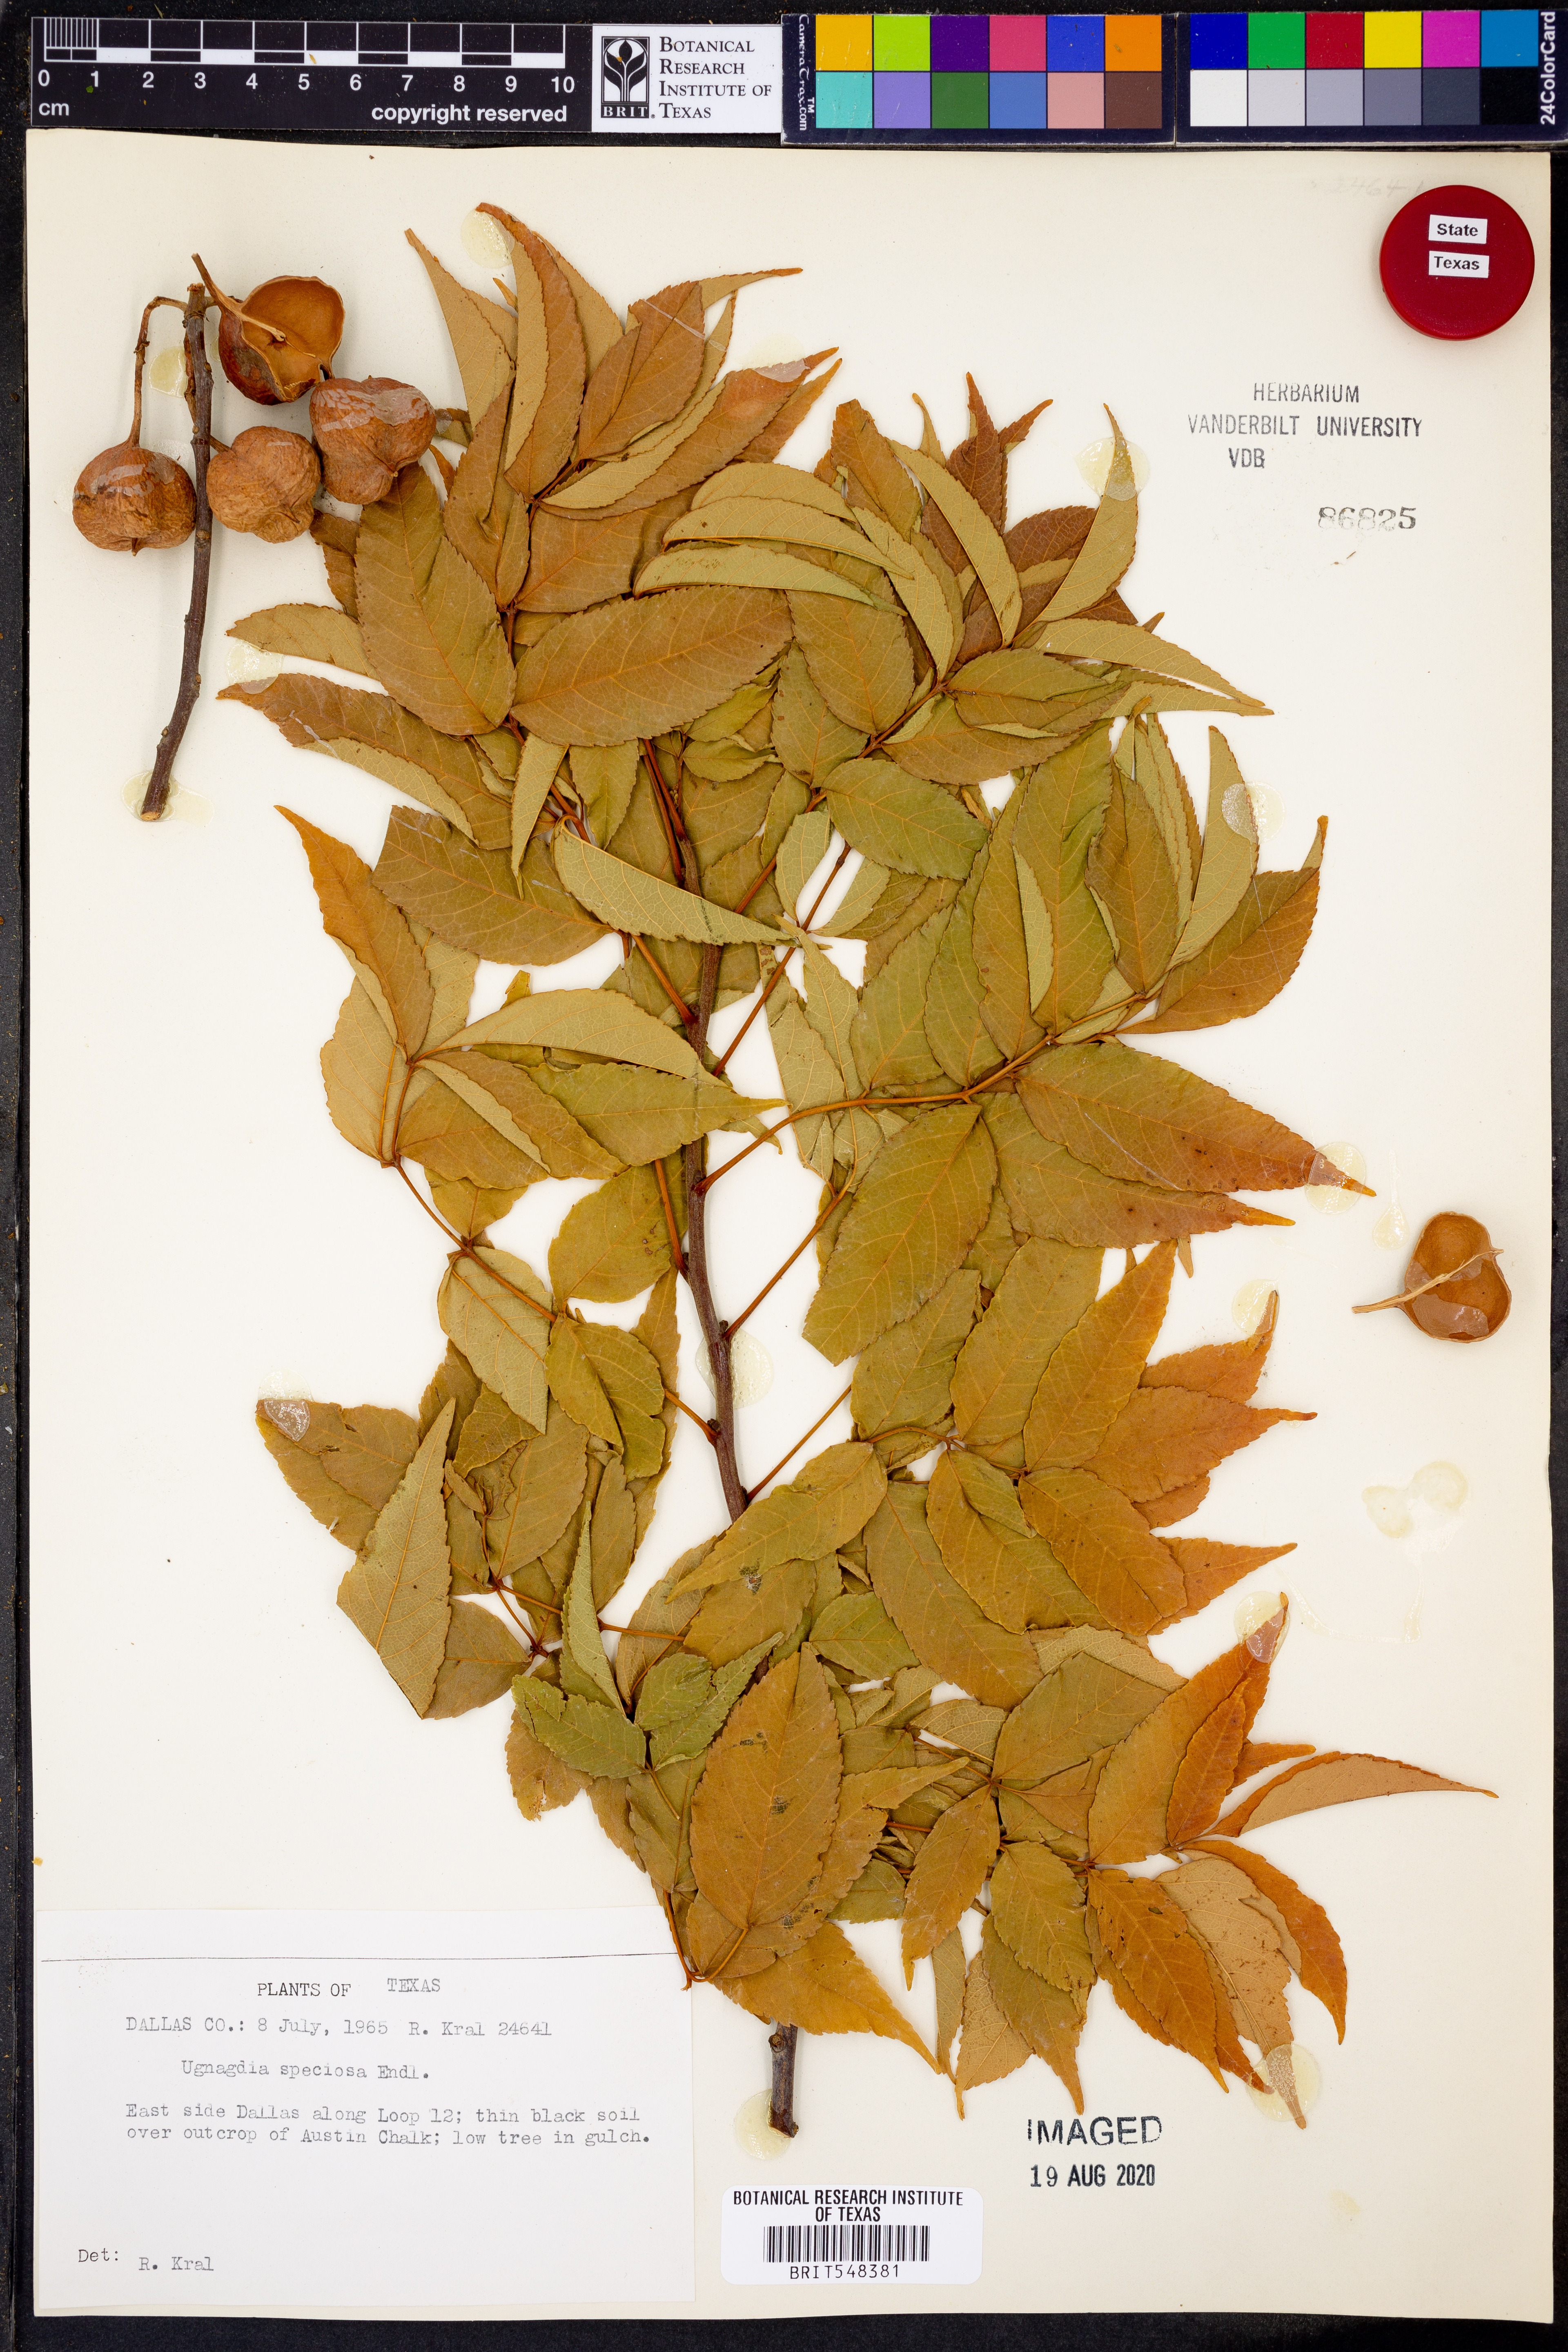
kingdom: Plantae
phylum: Tracheophyta
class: Magnoliopsida
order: Sapindales
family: Sapindaceae
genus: Ungnadia
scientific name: Ungnadia speciosa
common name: Texas-buckeye
